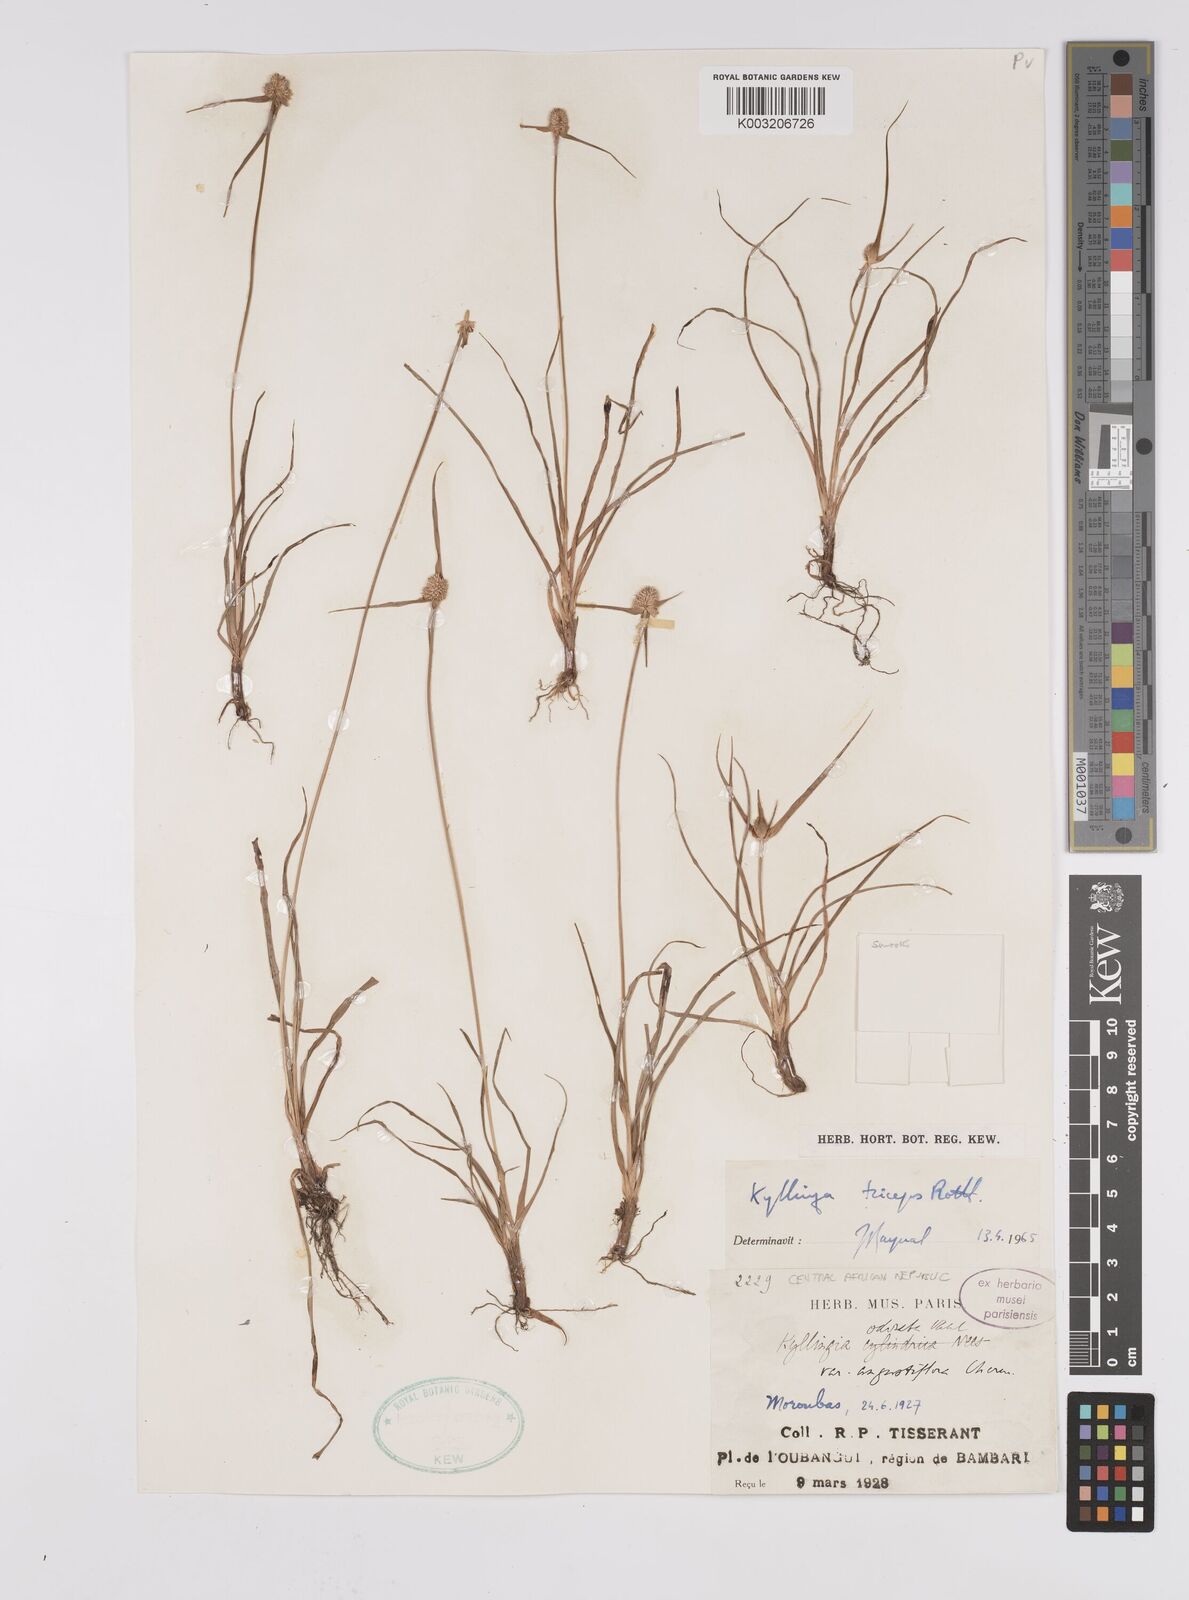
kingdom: Plantae
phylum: Tracheophyta
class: Liliopsida
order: Poales
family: Cyperaceae
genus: Cyperus
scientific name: Cyperus
